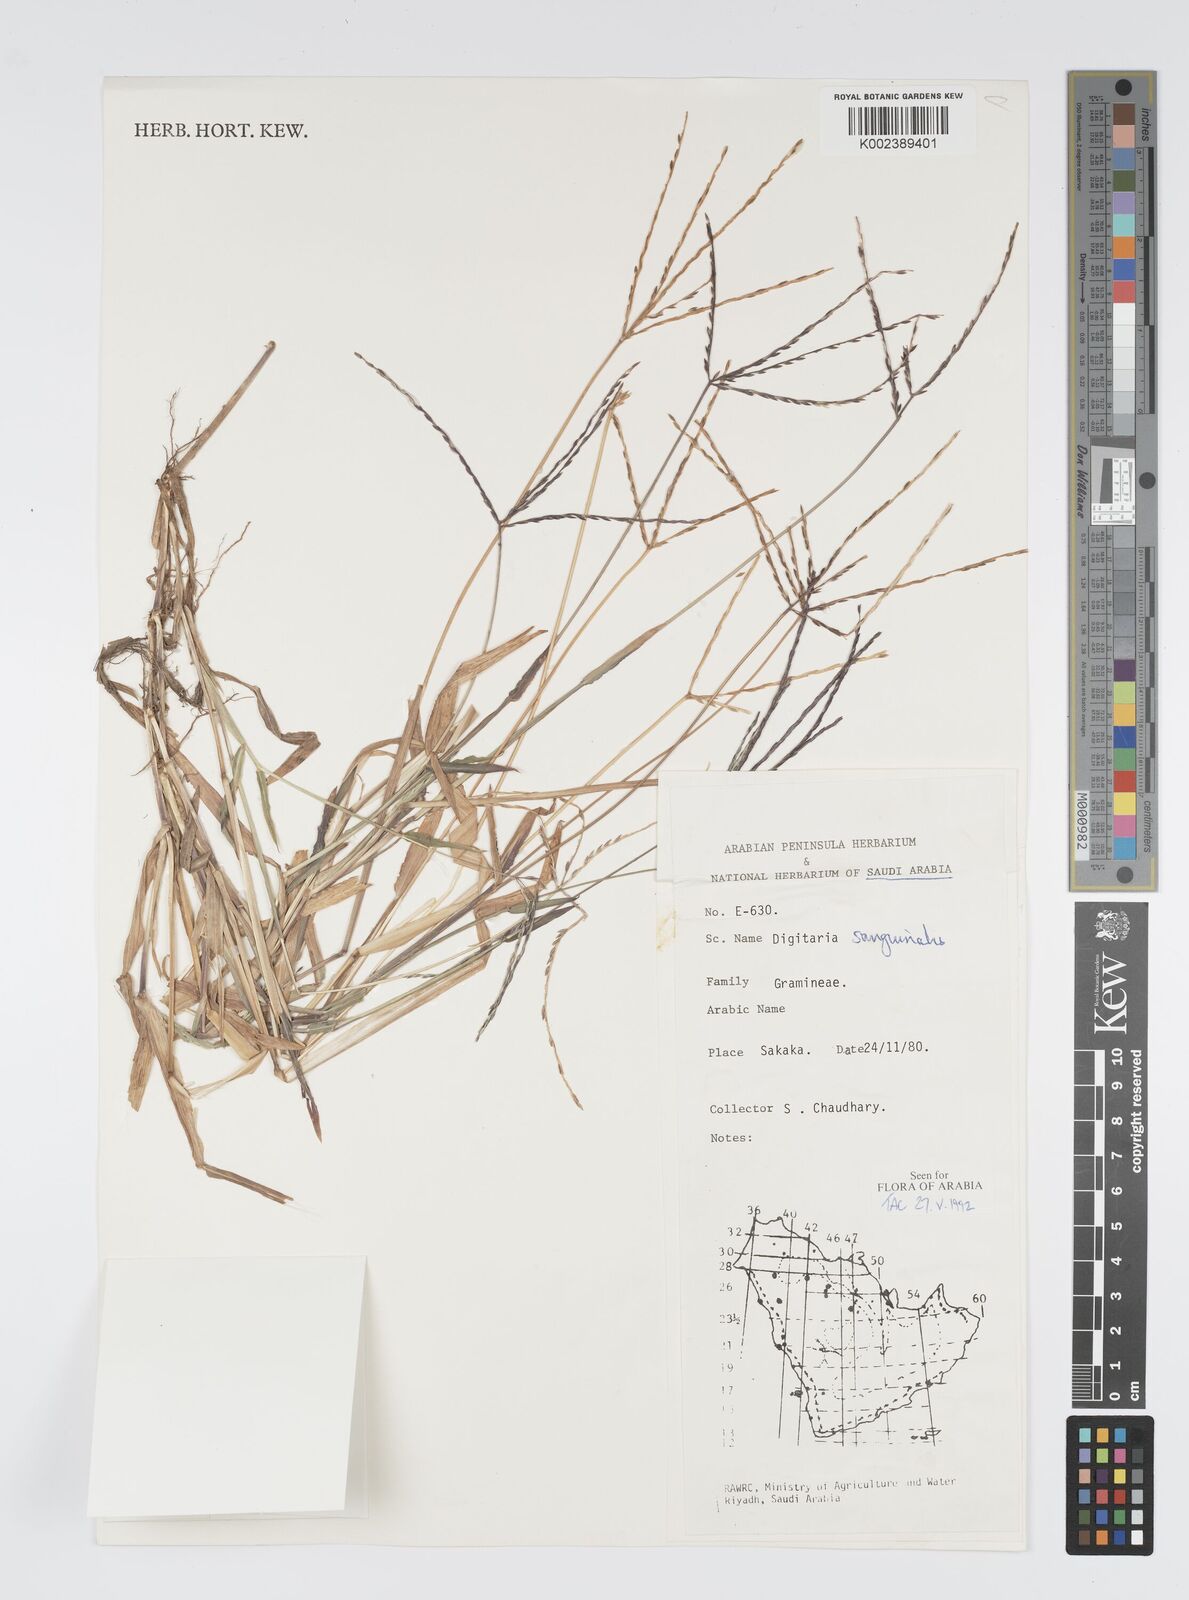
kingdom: Plantae
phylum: Tracheophyta
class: Liliopsida
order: Poales
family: Poaceae
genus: Digitaria
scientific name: Digitaria sanguinalis
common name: Hairy crabgrass
